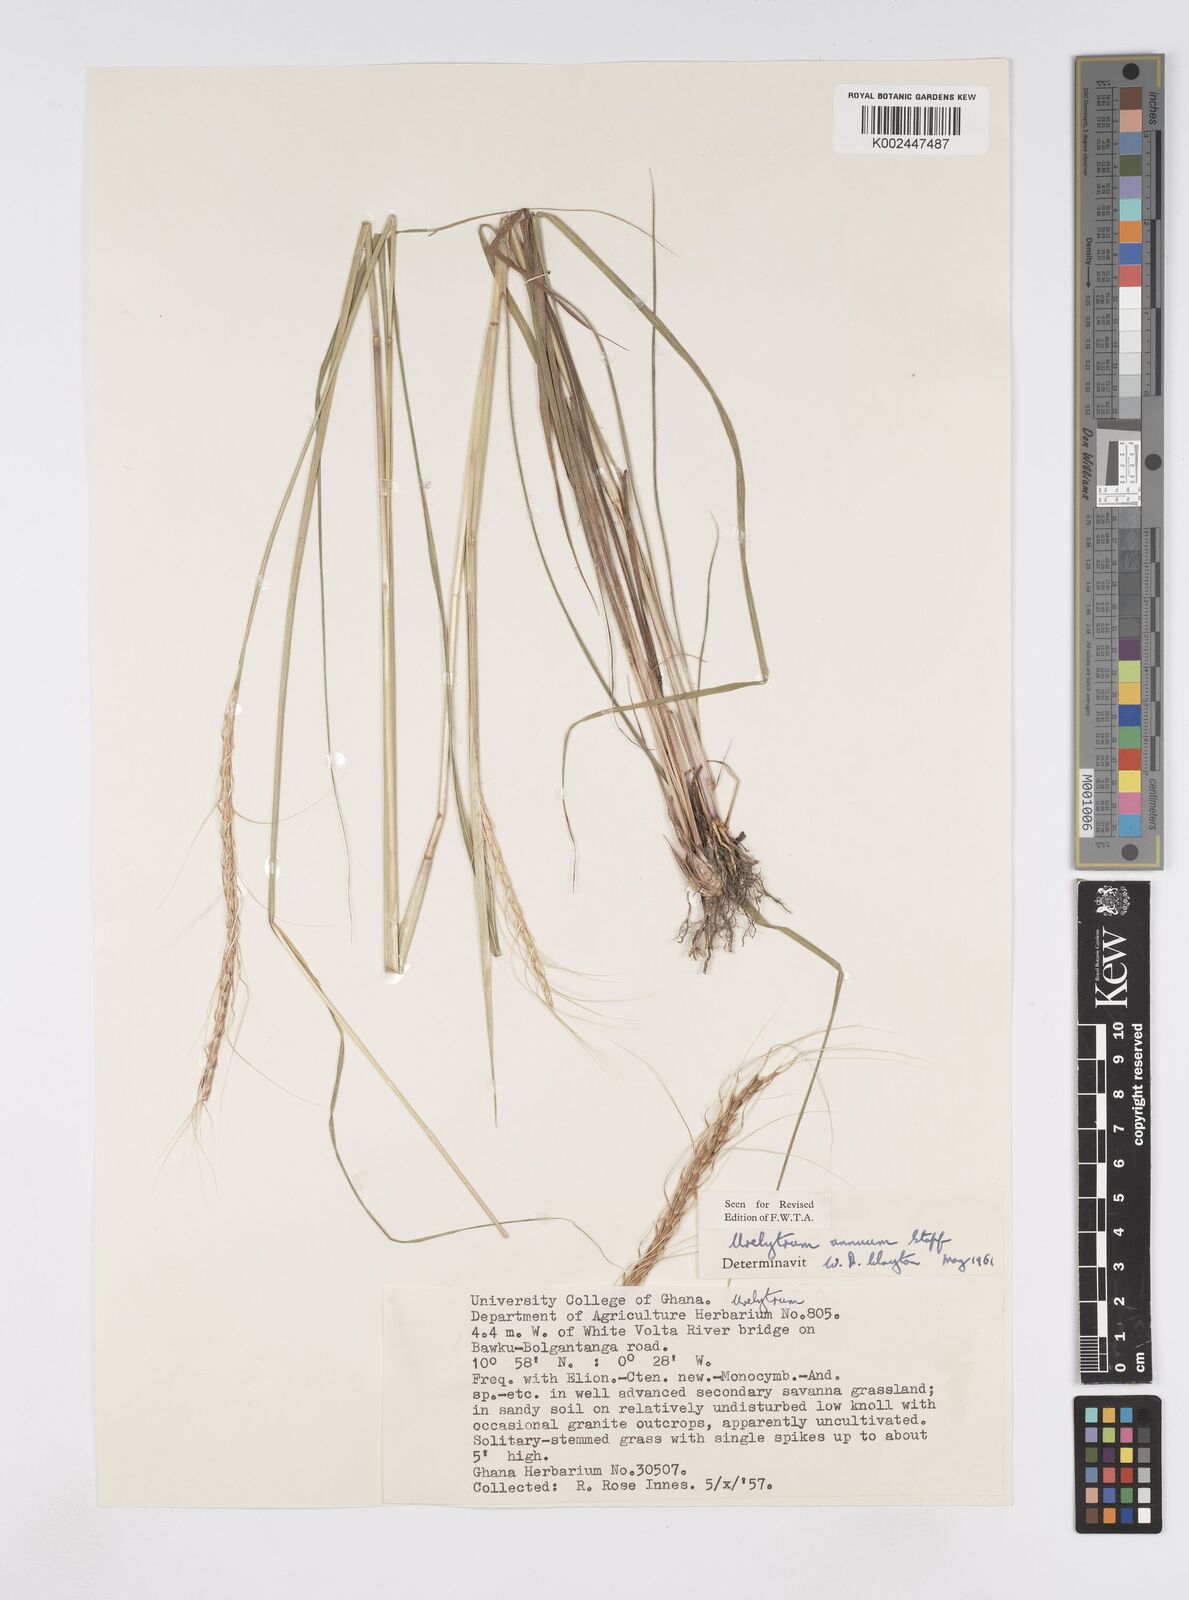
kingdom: Plantae
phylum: Tracheophyta
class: Liliopsida
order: Poales
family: Poaceae
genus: Urelytrum
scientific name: Urelytrum annuum
